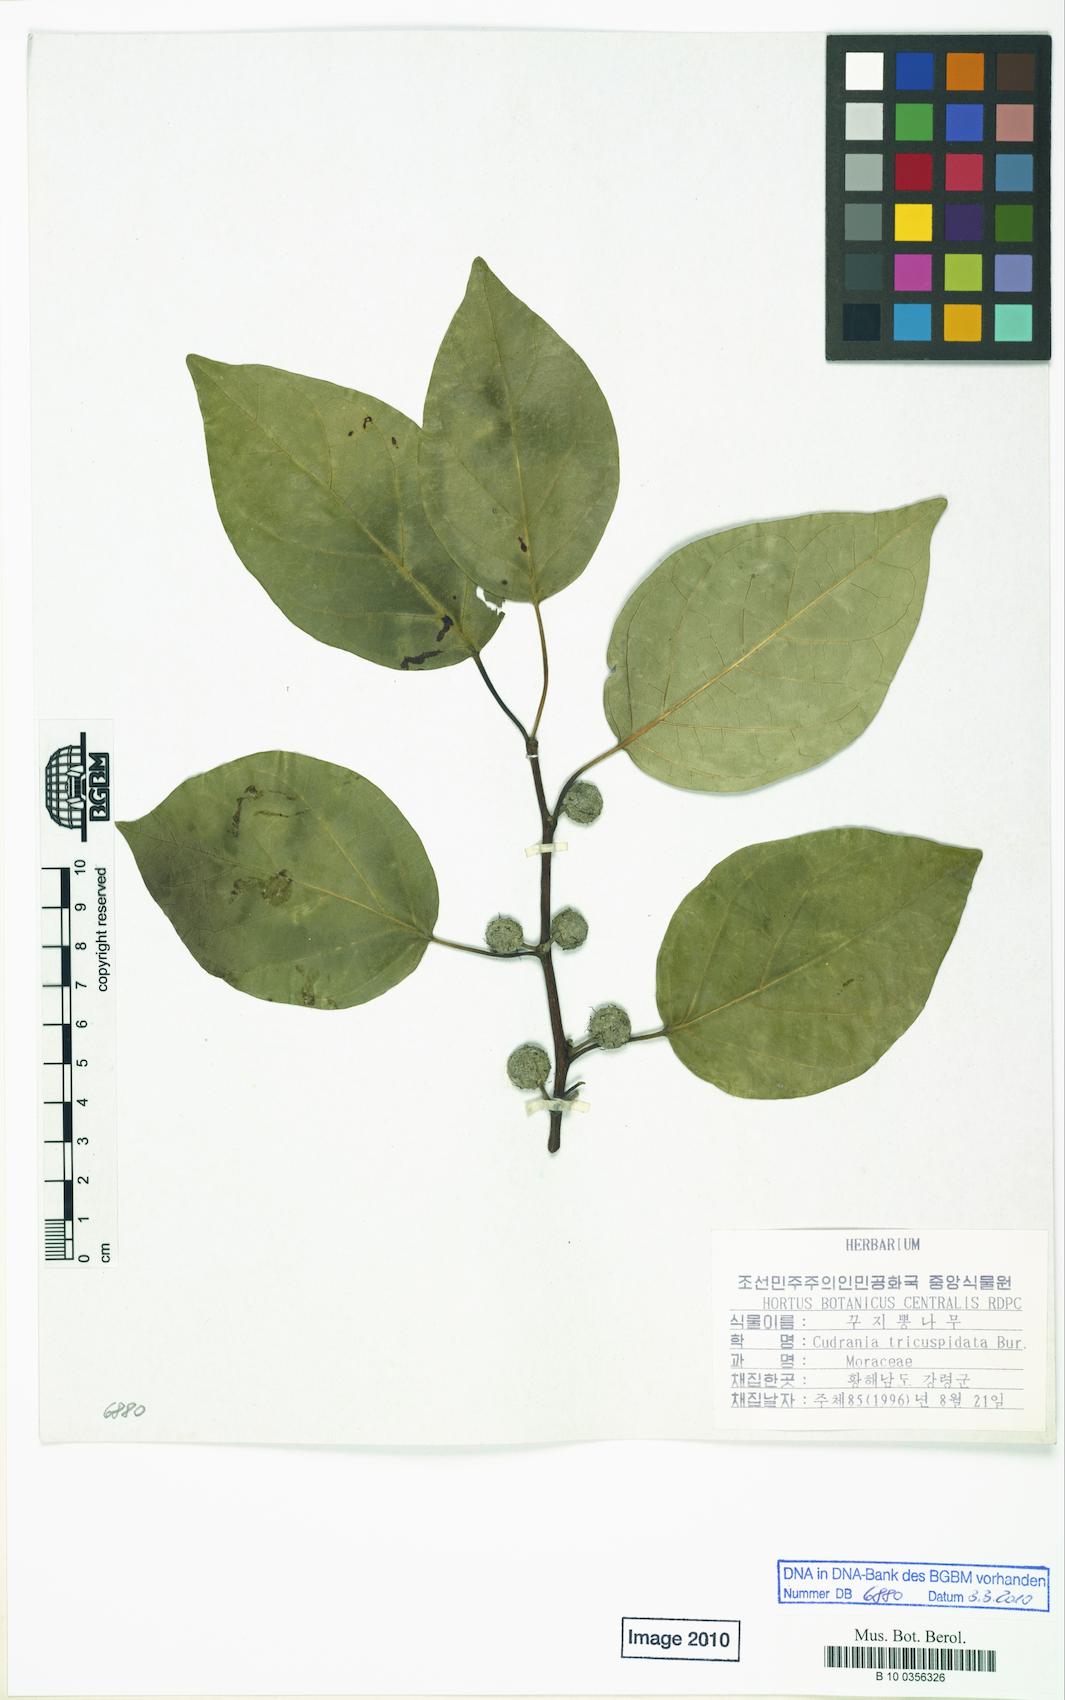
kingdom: Plantae
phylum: Tracheophyta
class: Magnoliopsida
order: Rosales
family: Moraceae
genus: Maclura
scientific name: Maclura tricuspidata
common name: Storehousebush
